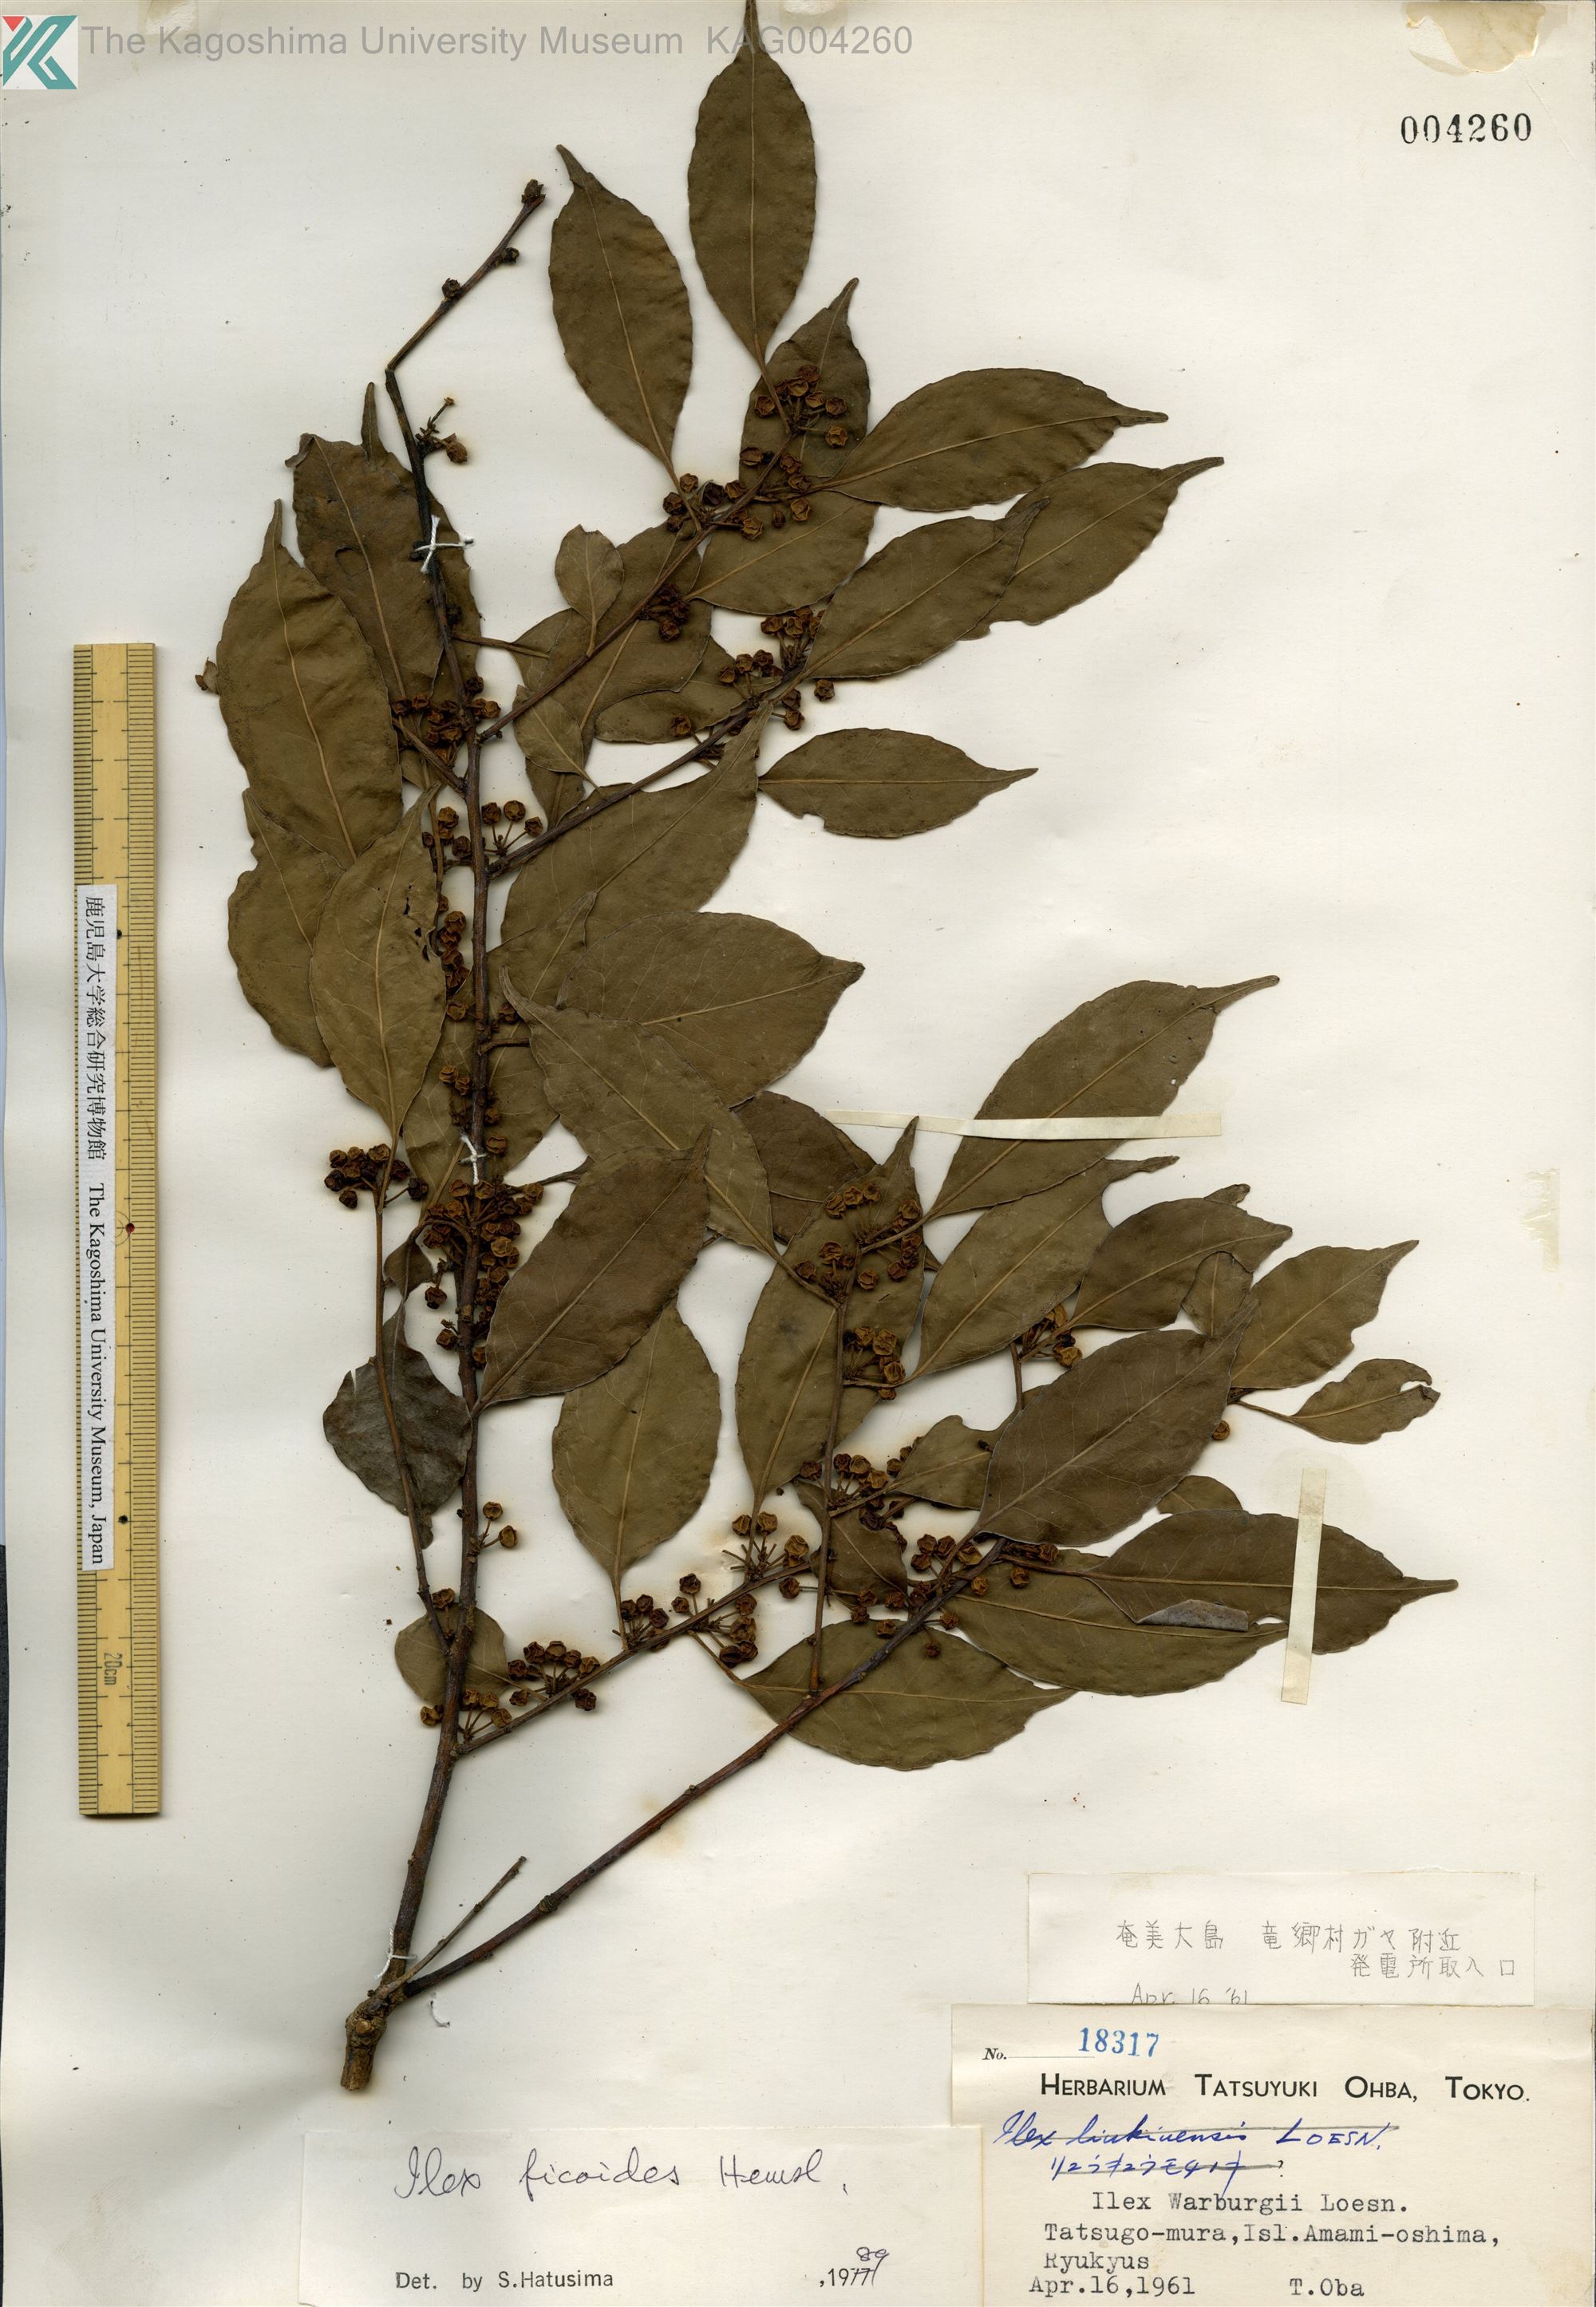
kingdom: Plantae
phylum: Tracheophyta
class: Magnoliopsida
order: Aquifoliales
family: Aquifoliaceae
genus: Ilex
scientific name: Ilex warburgii
